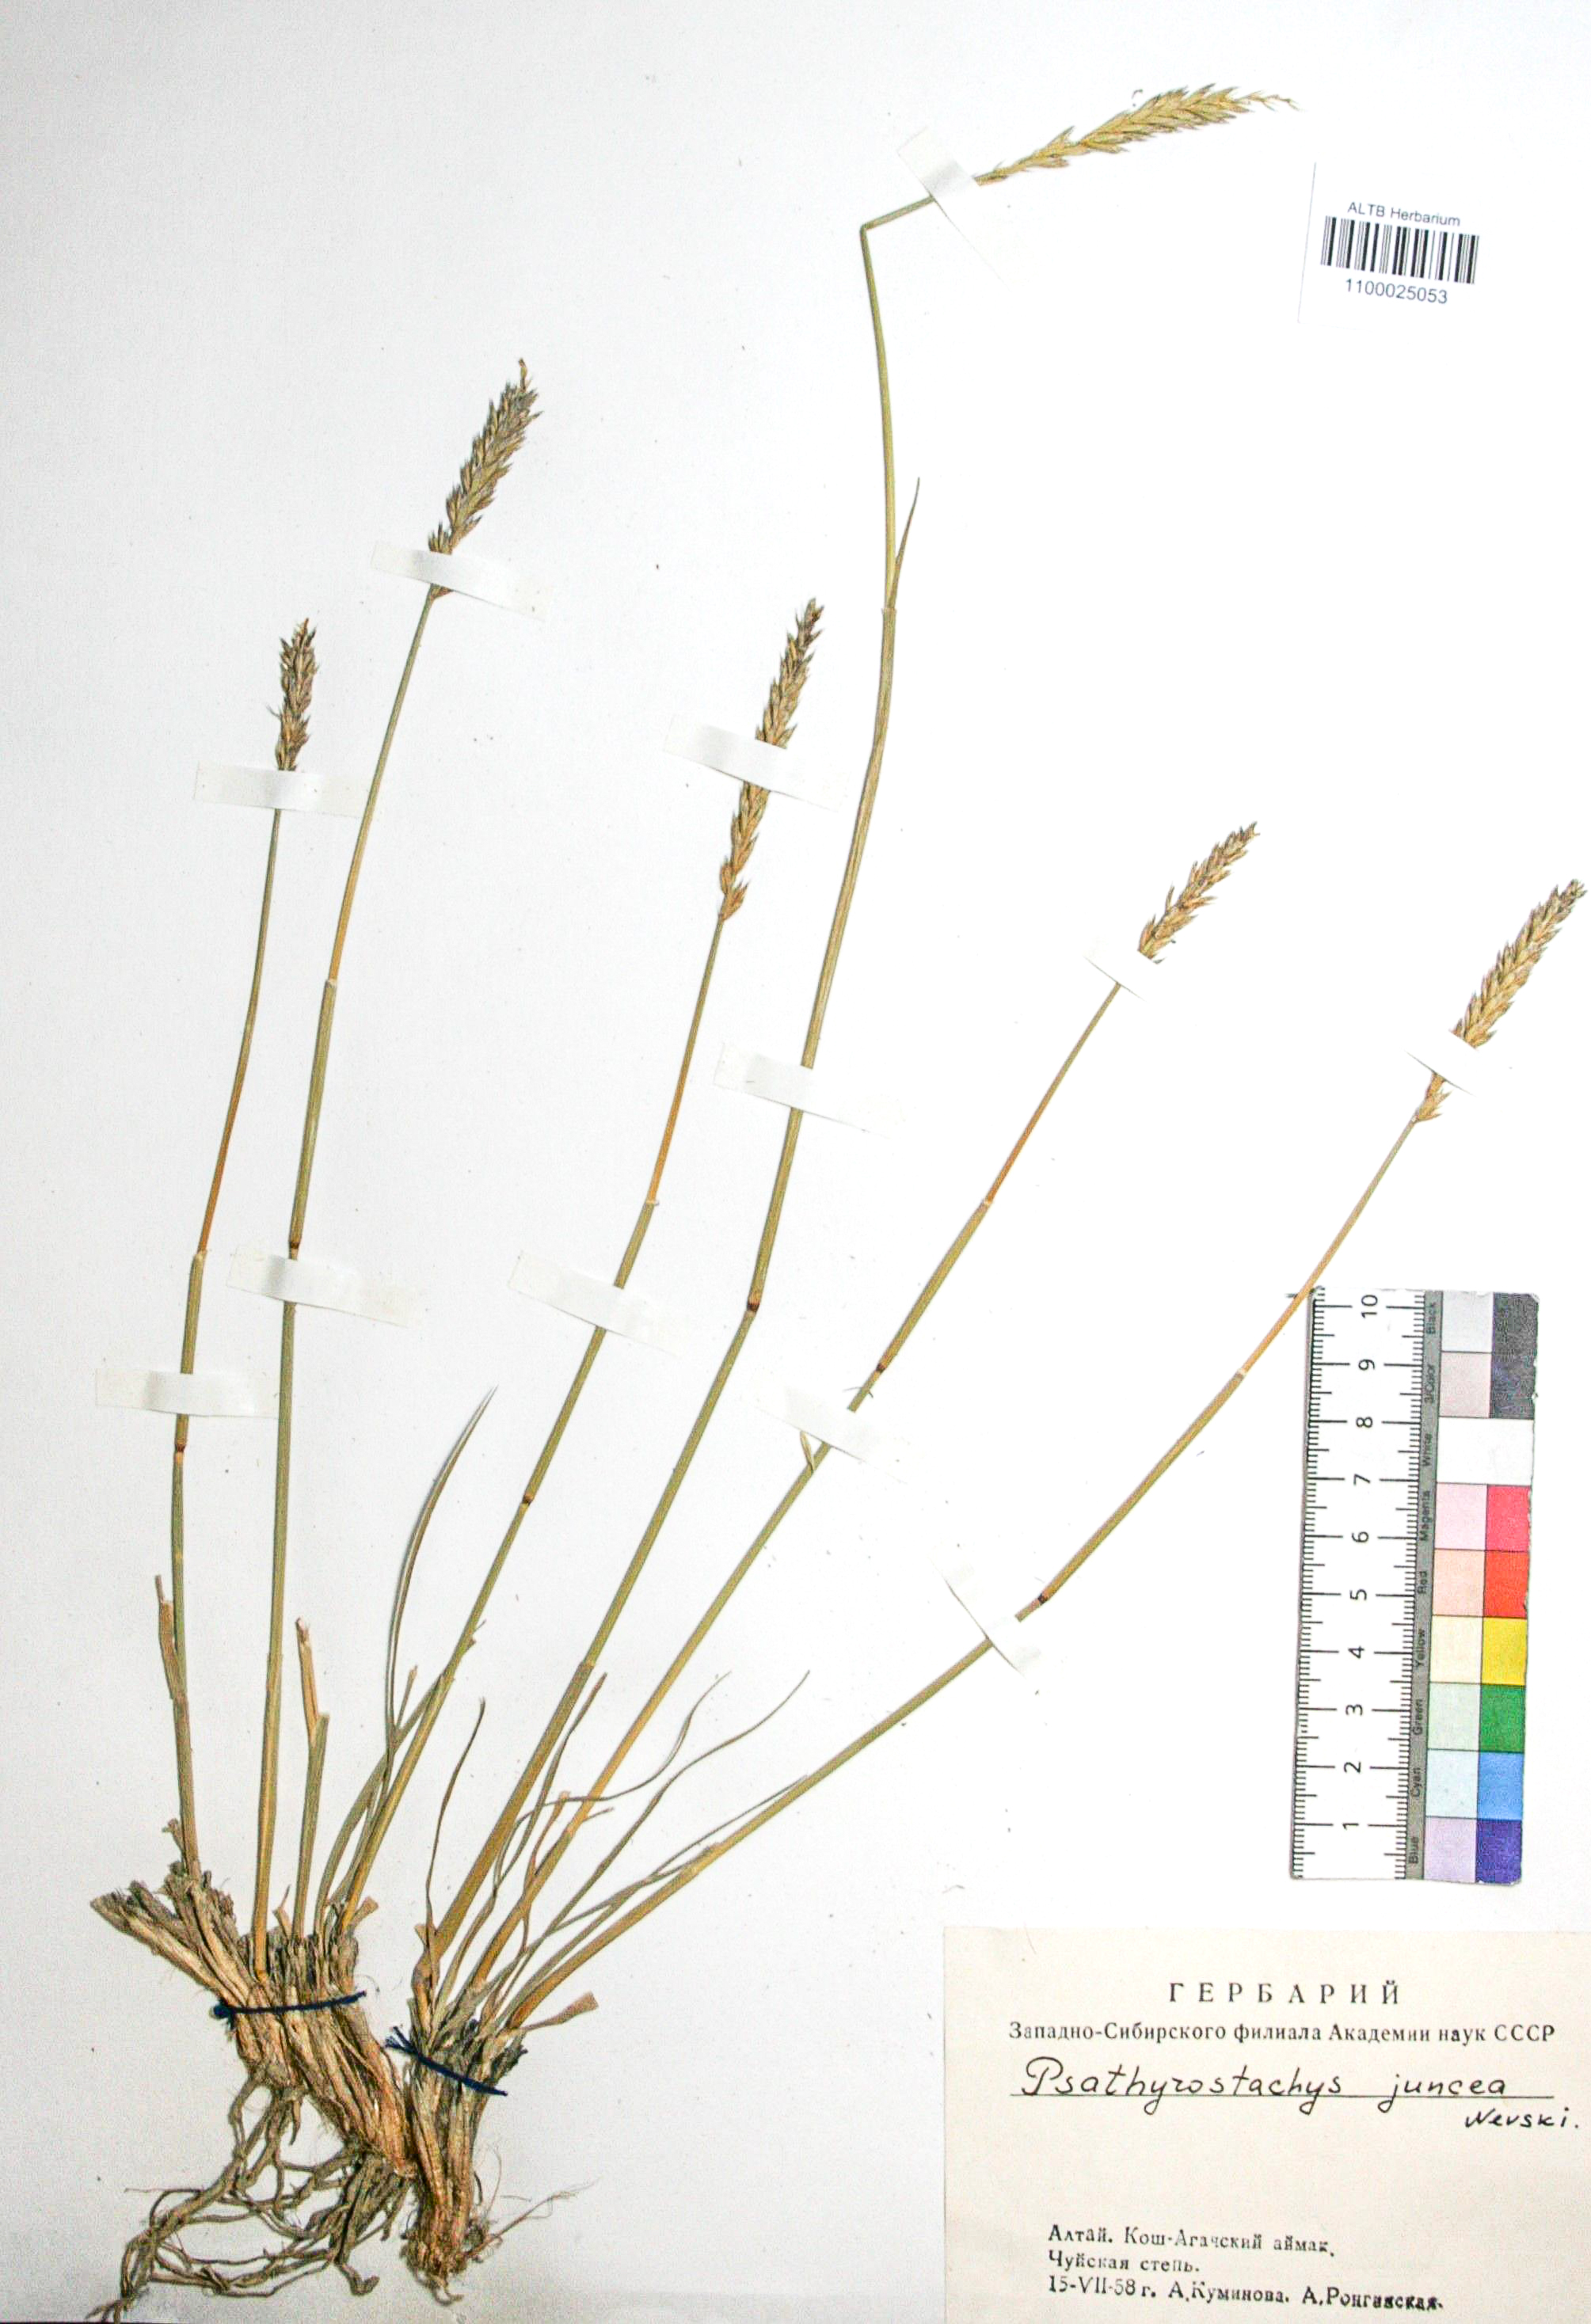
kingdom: Plantae
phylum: Tracheophyta
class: Liliopsida
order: Poales
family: Poaceae
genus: Psathyrostachys
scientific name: Psathyrostachys juncea
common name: Russian wildrye
